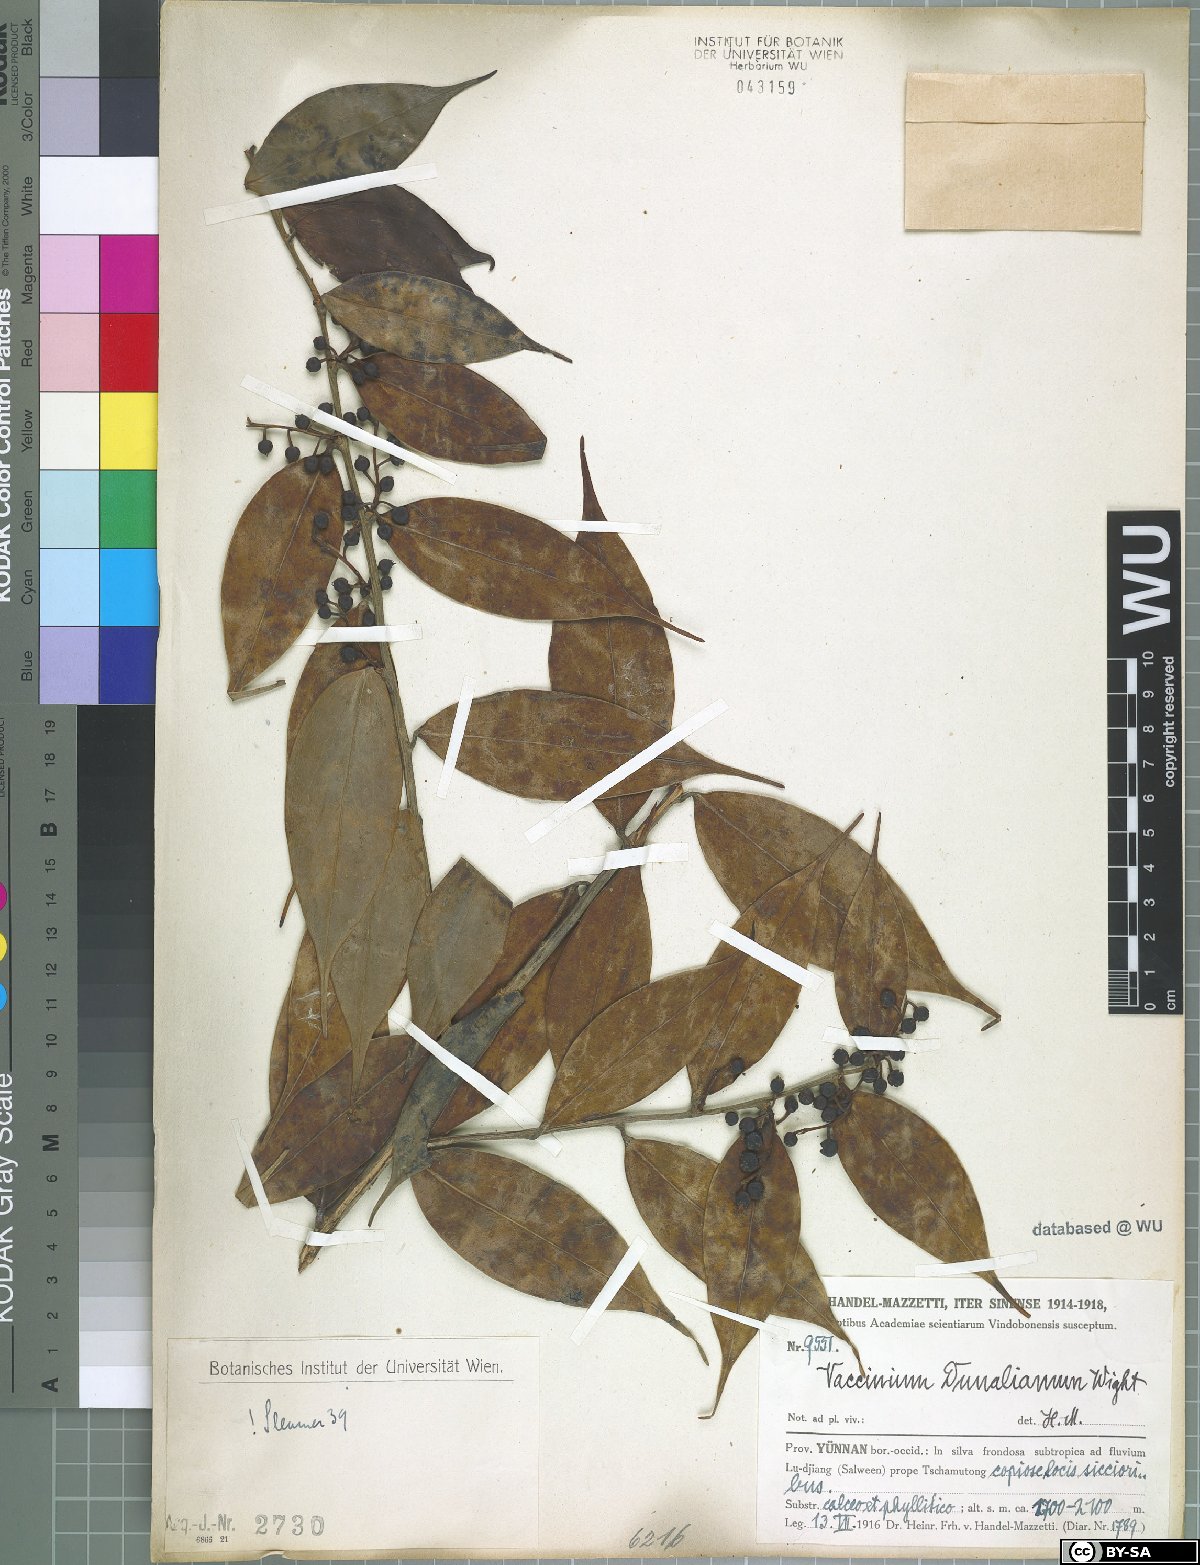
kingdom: Plantae
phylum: Tracheophyta
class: Magnoliopsida
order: Ericales
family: Ericaceae
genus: Vaccinium
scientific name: Vaccinium dunalianum
